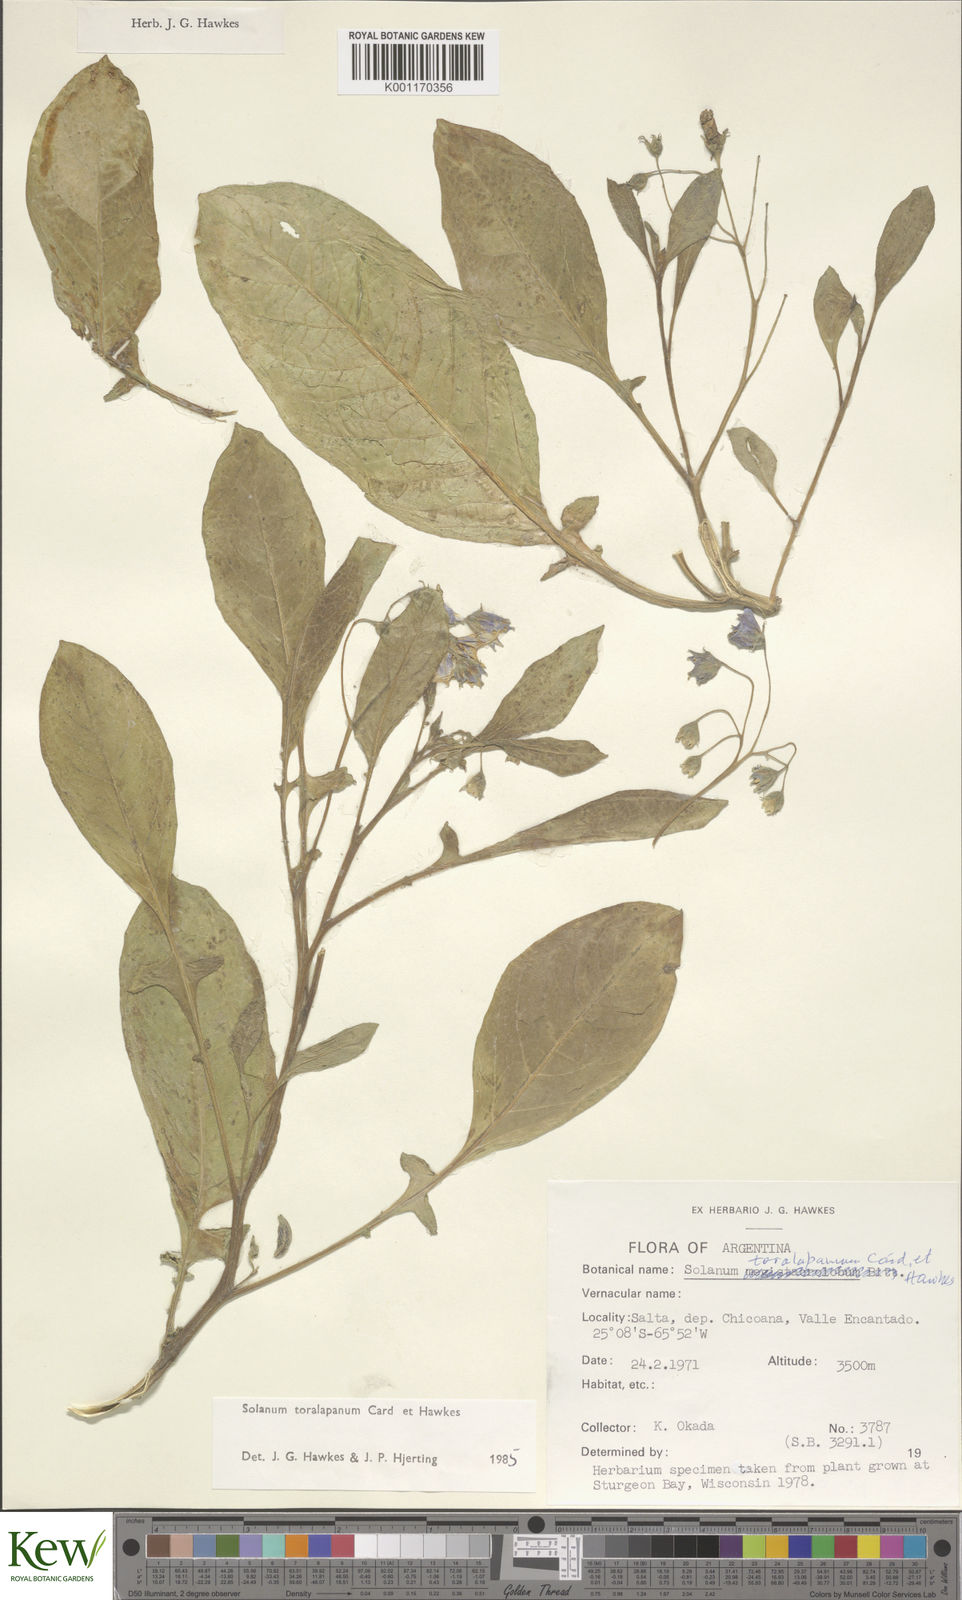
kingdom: Plantae
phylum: Tracheophyta
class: Magnoliopsida
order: Solanales
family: Solanaceae
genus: Solanum
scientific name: Solanum
